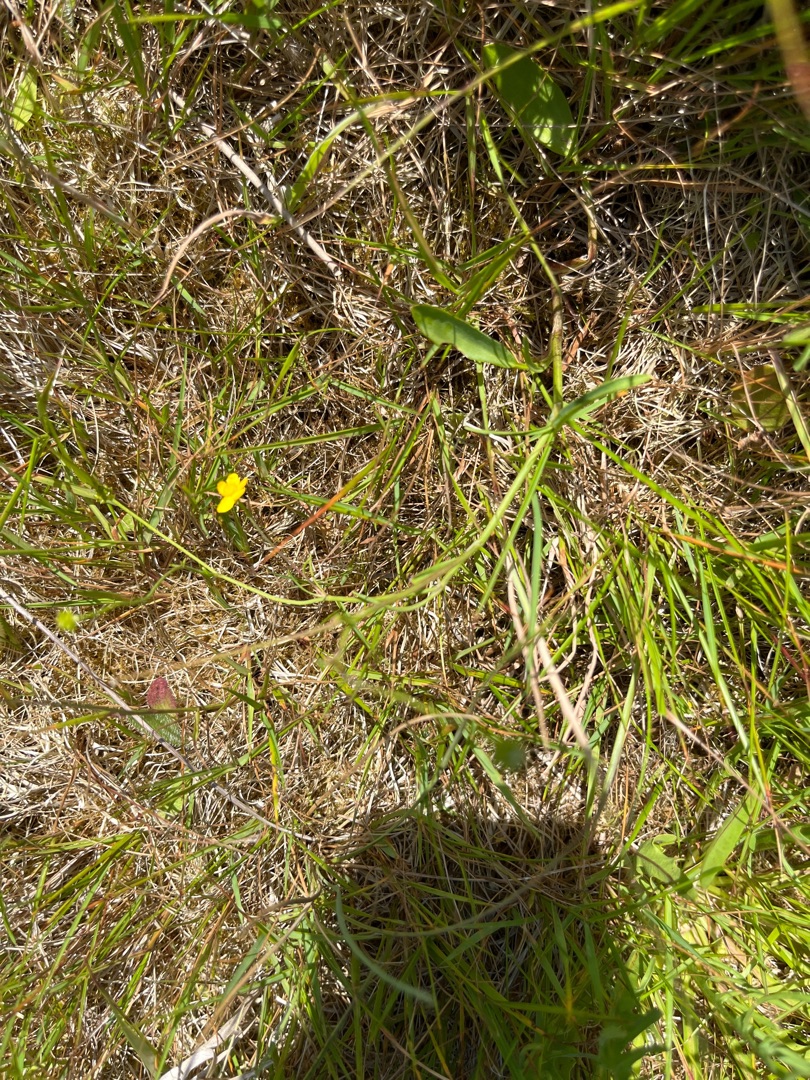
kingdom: Plantae
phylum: Tracheophyta
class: Magnoliopsida
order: Ranunculales
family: Ranunculaceae
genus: Ranunculus
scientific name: Ranunculus flammula
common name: Kær-ranunkel
